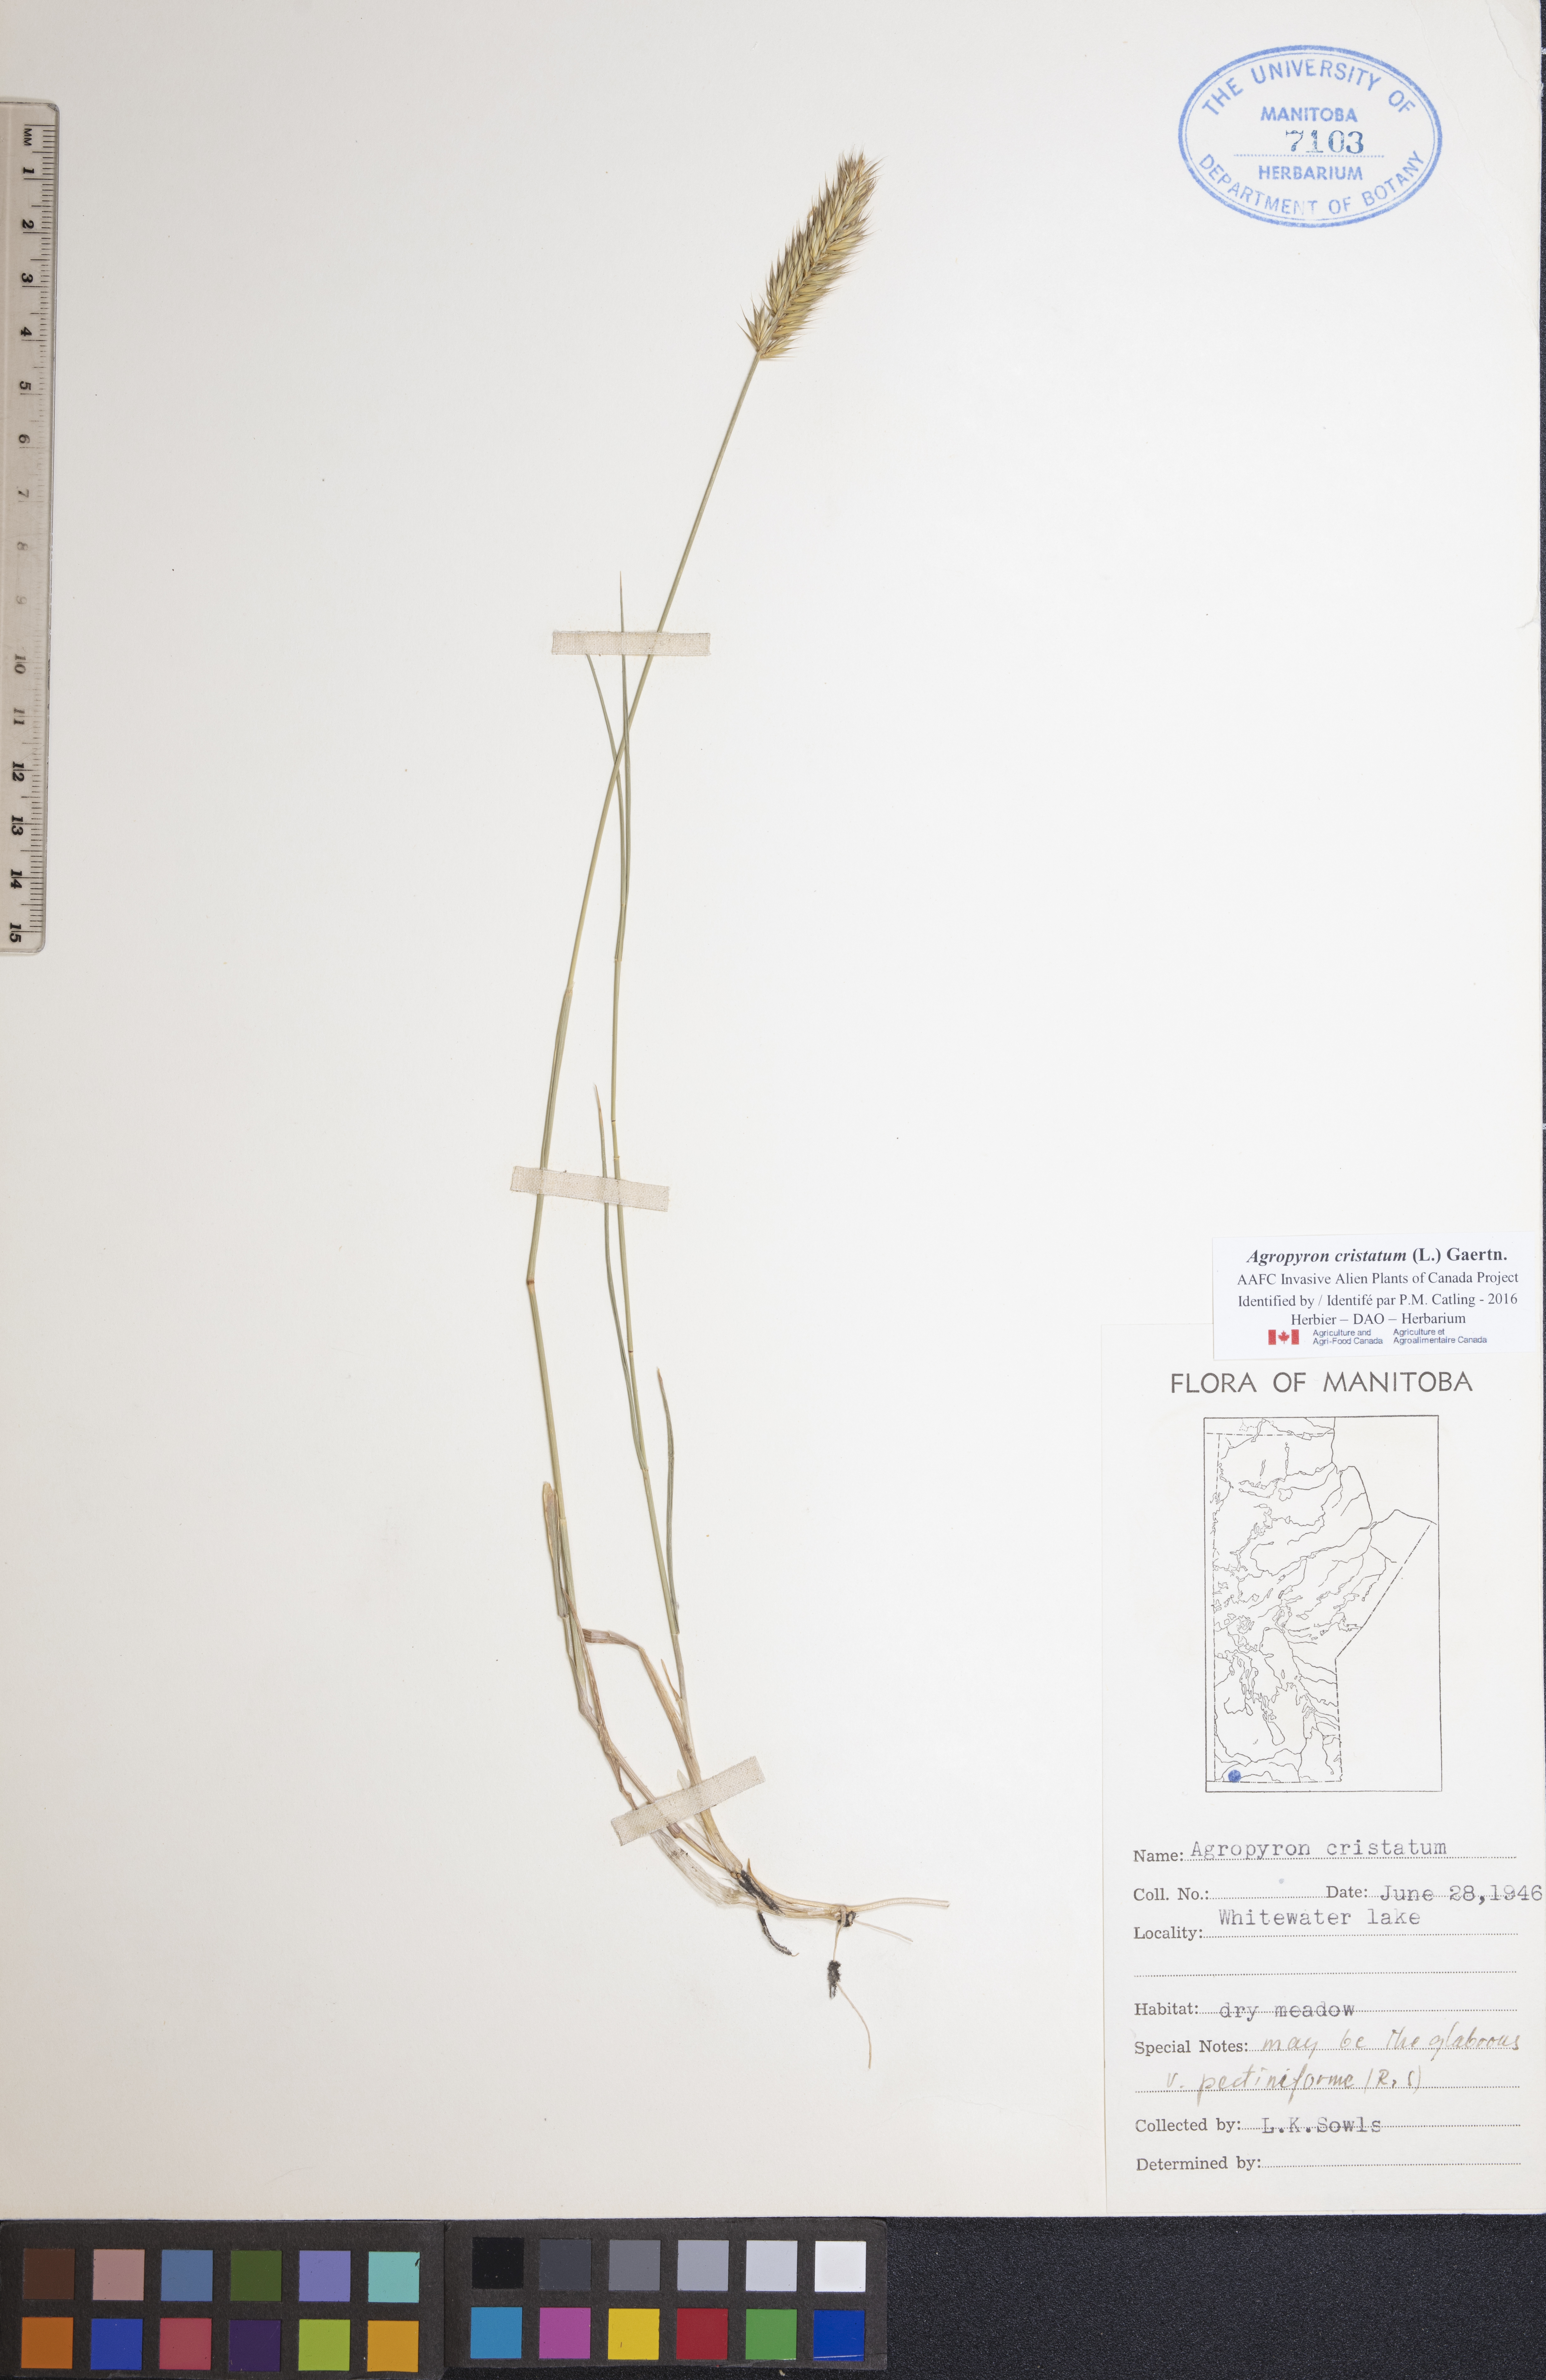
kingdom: Plantae
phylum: Tracheophyta
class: Liliopsida
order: Poales
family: Poaceae
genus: Agropyron
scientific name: Agropyron cristatum
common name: Crested wheatgrass
